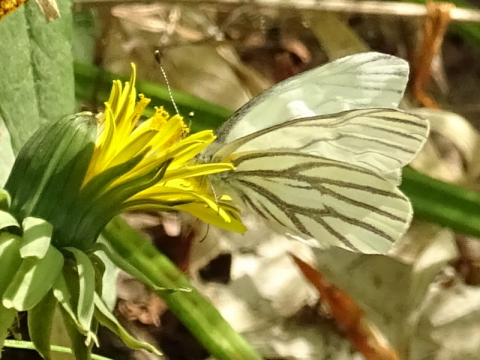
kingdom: Animalia
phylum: Arthropoda
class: Insecta
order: Lepidoptera
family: Pieridae
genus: Pieris
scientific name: Pieris oleracea
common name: Mustard White
